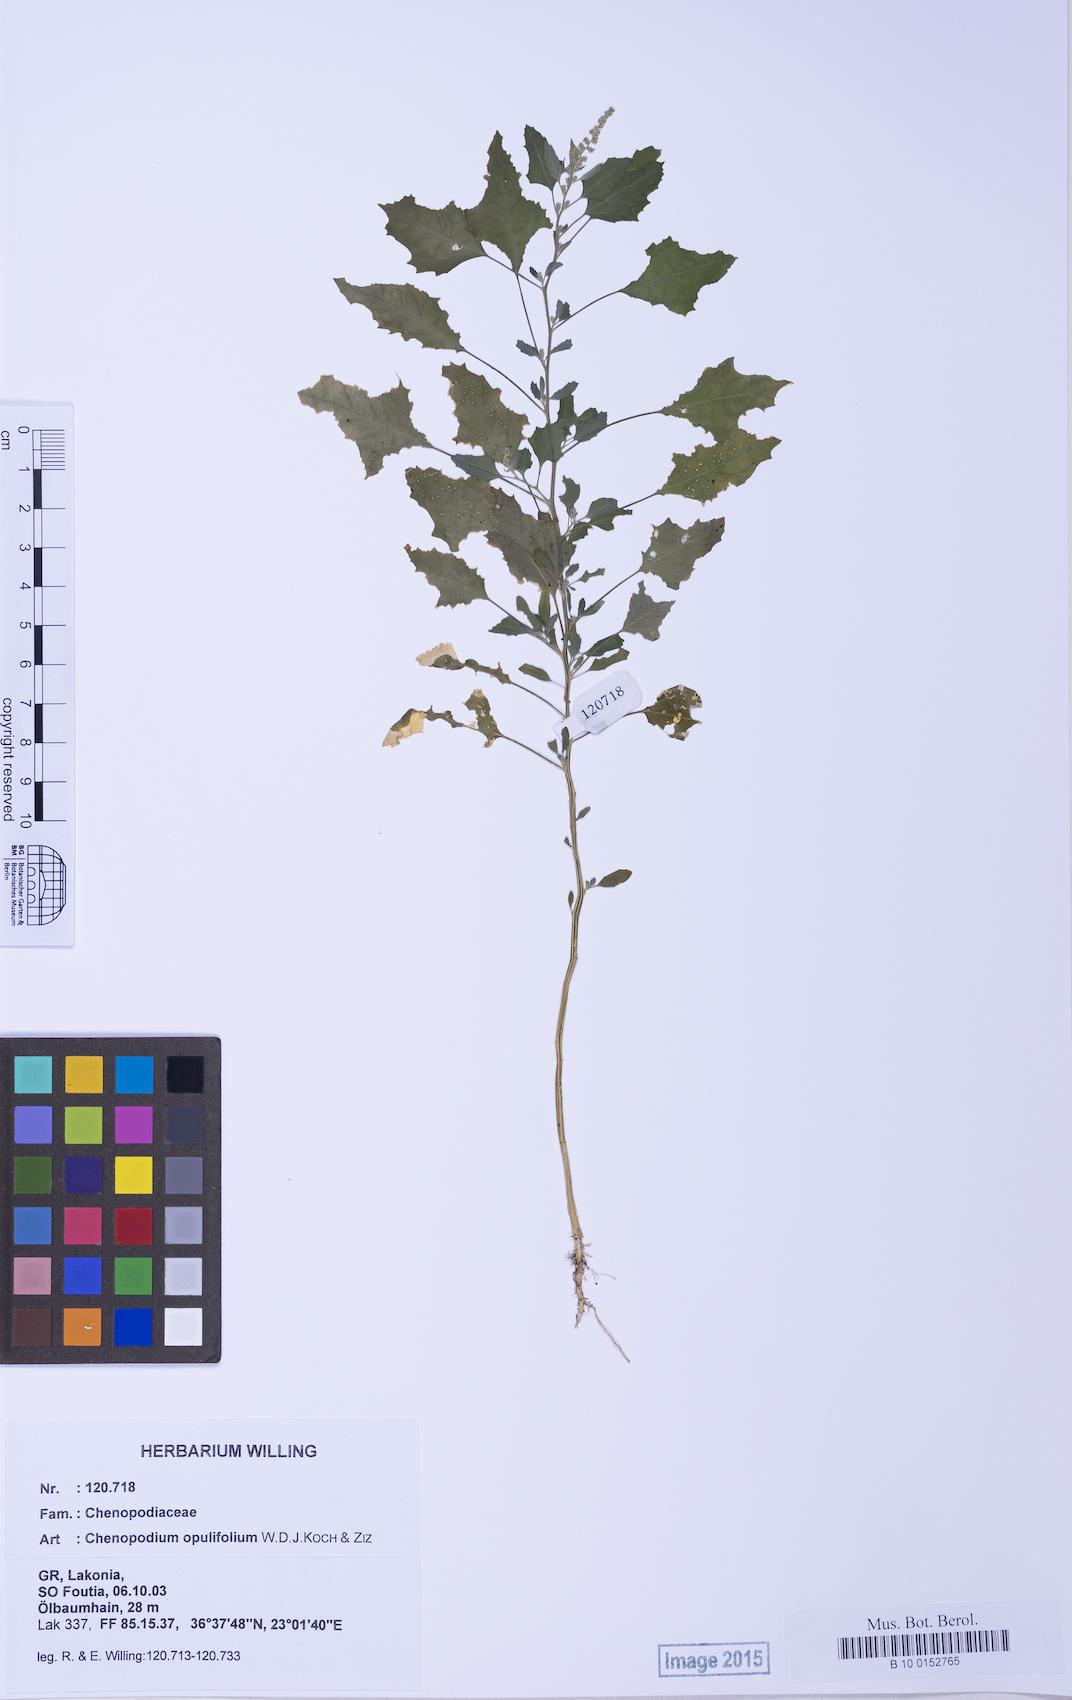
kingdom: Plantae
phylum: Tracheophyta
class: Magnoliopsida
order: Caryophyllales
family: Amaranthaceae
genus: Chenopodium
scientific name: Chenopodium album
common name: Fat-hen
